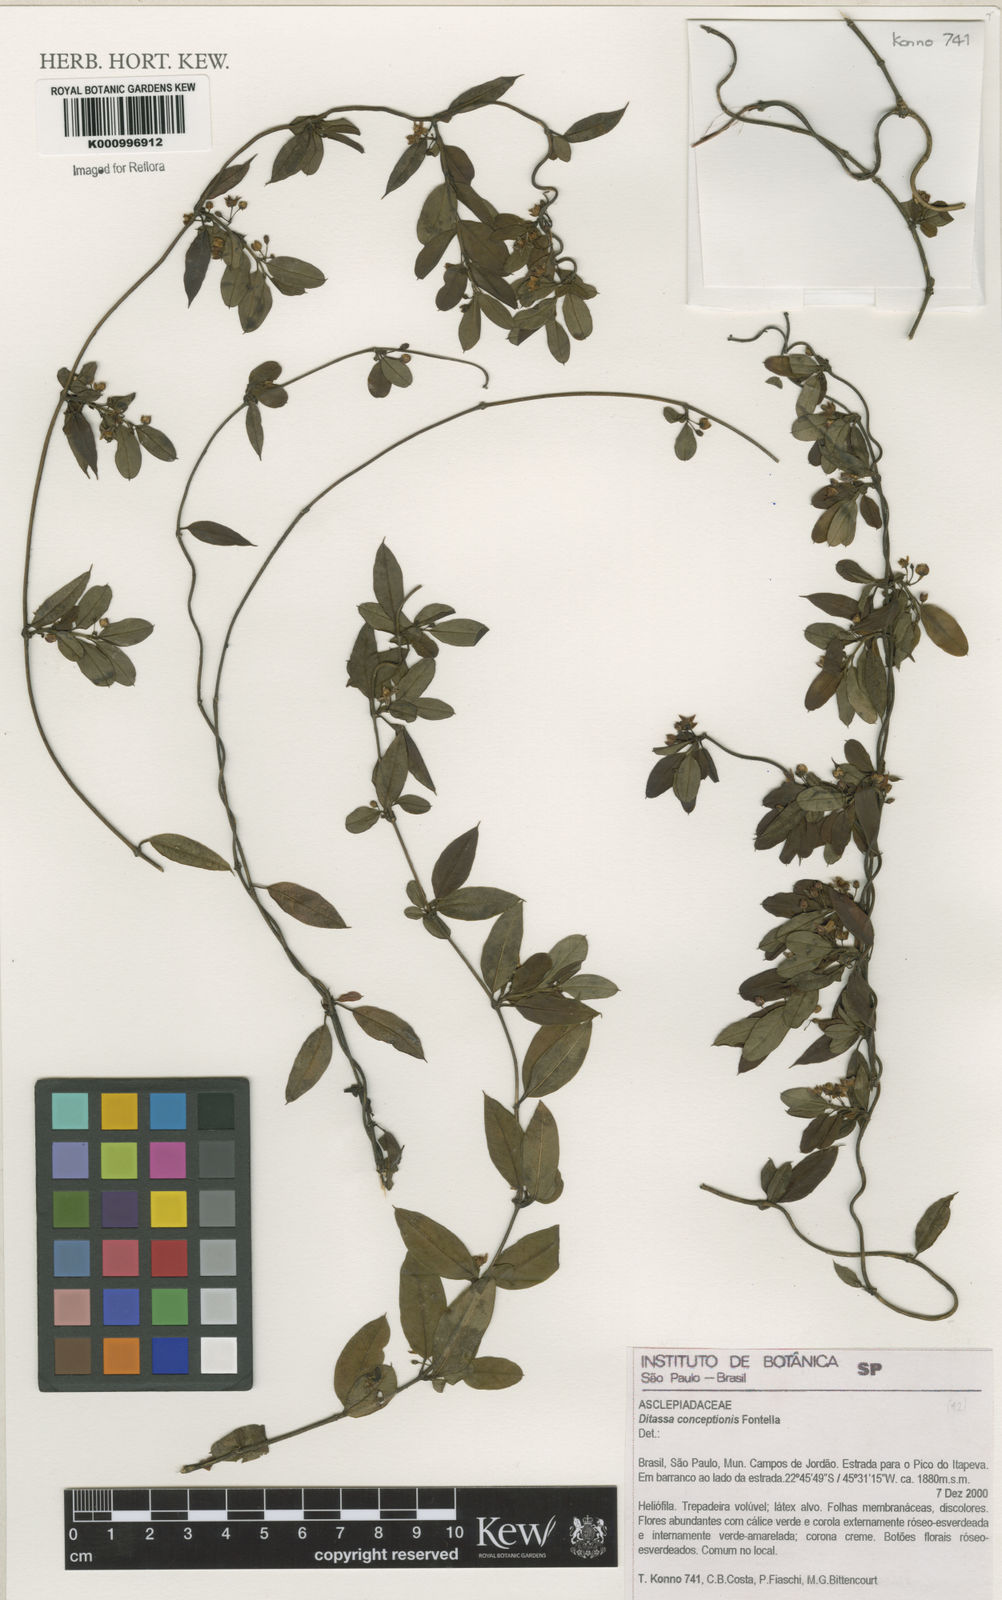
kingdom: Plantae
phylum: Tracheophyta
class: Magnoliopsida
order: Gentianales
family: Apocynaceae
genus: Ditassa
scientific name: Ditassa conceptionis
